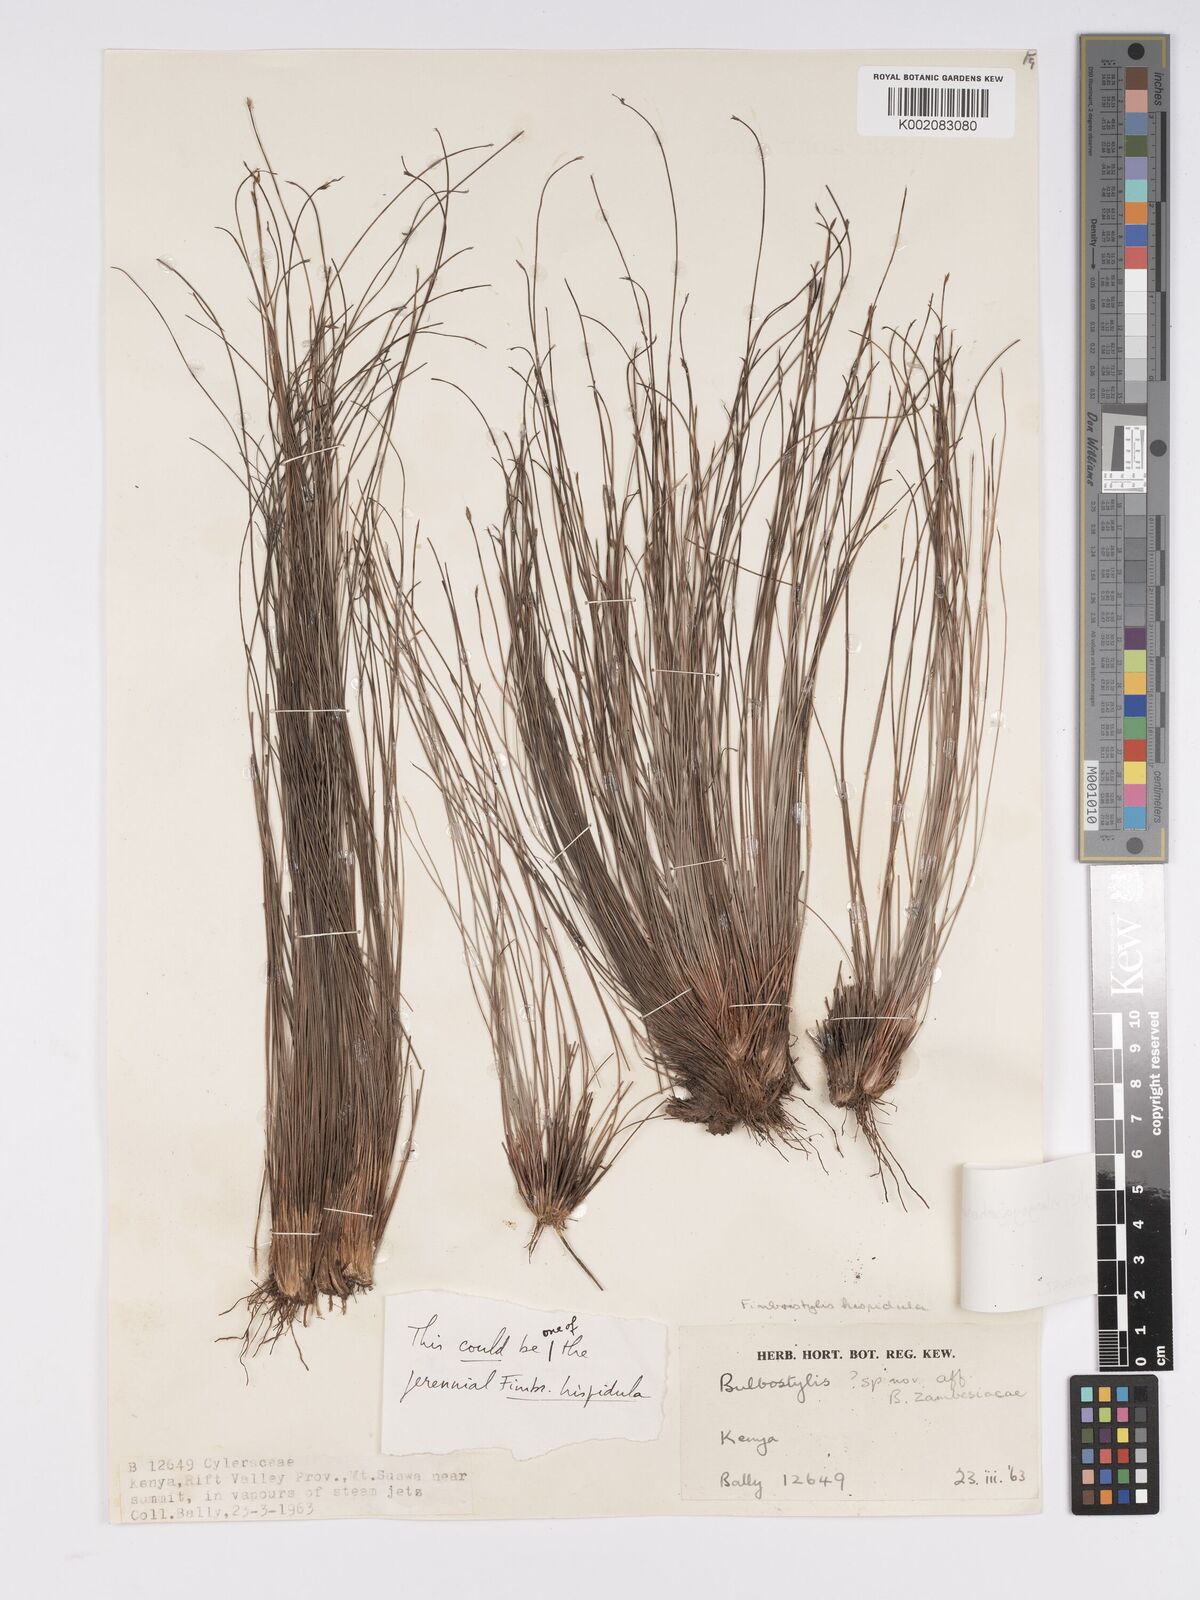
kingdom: Plantae
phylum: Tracheophyta
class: Liliopsida
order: Poales
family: Cyperaceae
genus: Bulbostylis
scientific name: Bulbostylis mlangoyajehenum
